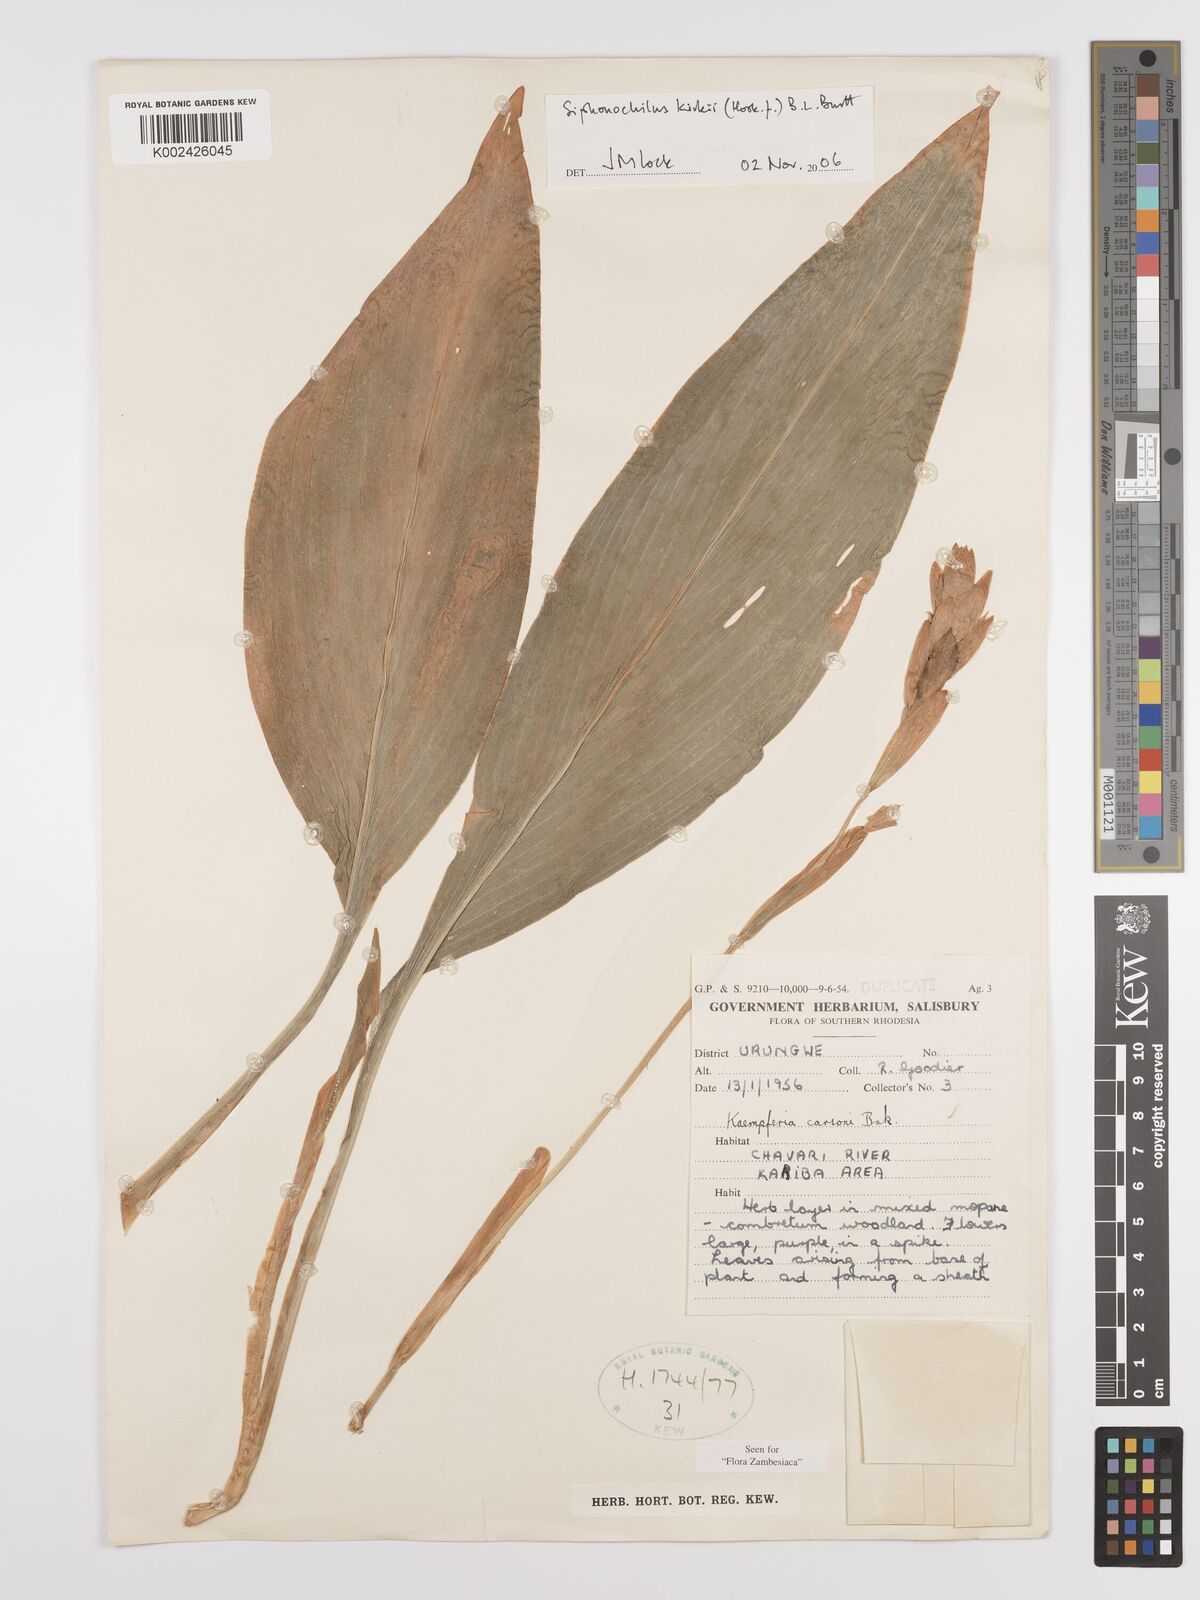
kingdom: Plantae
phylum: Tracheophyta
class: Liliopsida
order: Zingiberales
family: Zingiberaceae
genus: Siphonochilus
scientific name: Siphonochilus kirkii
